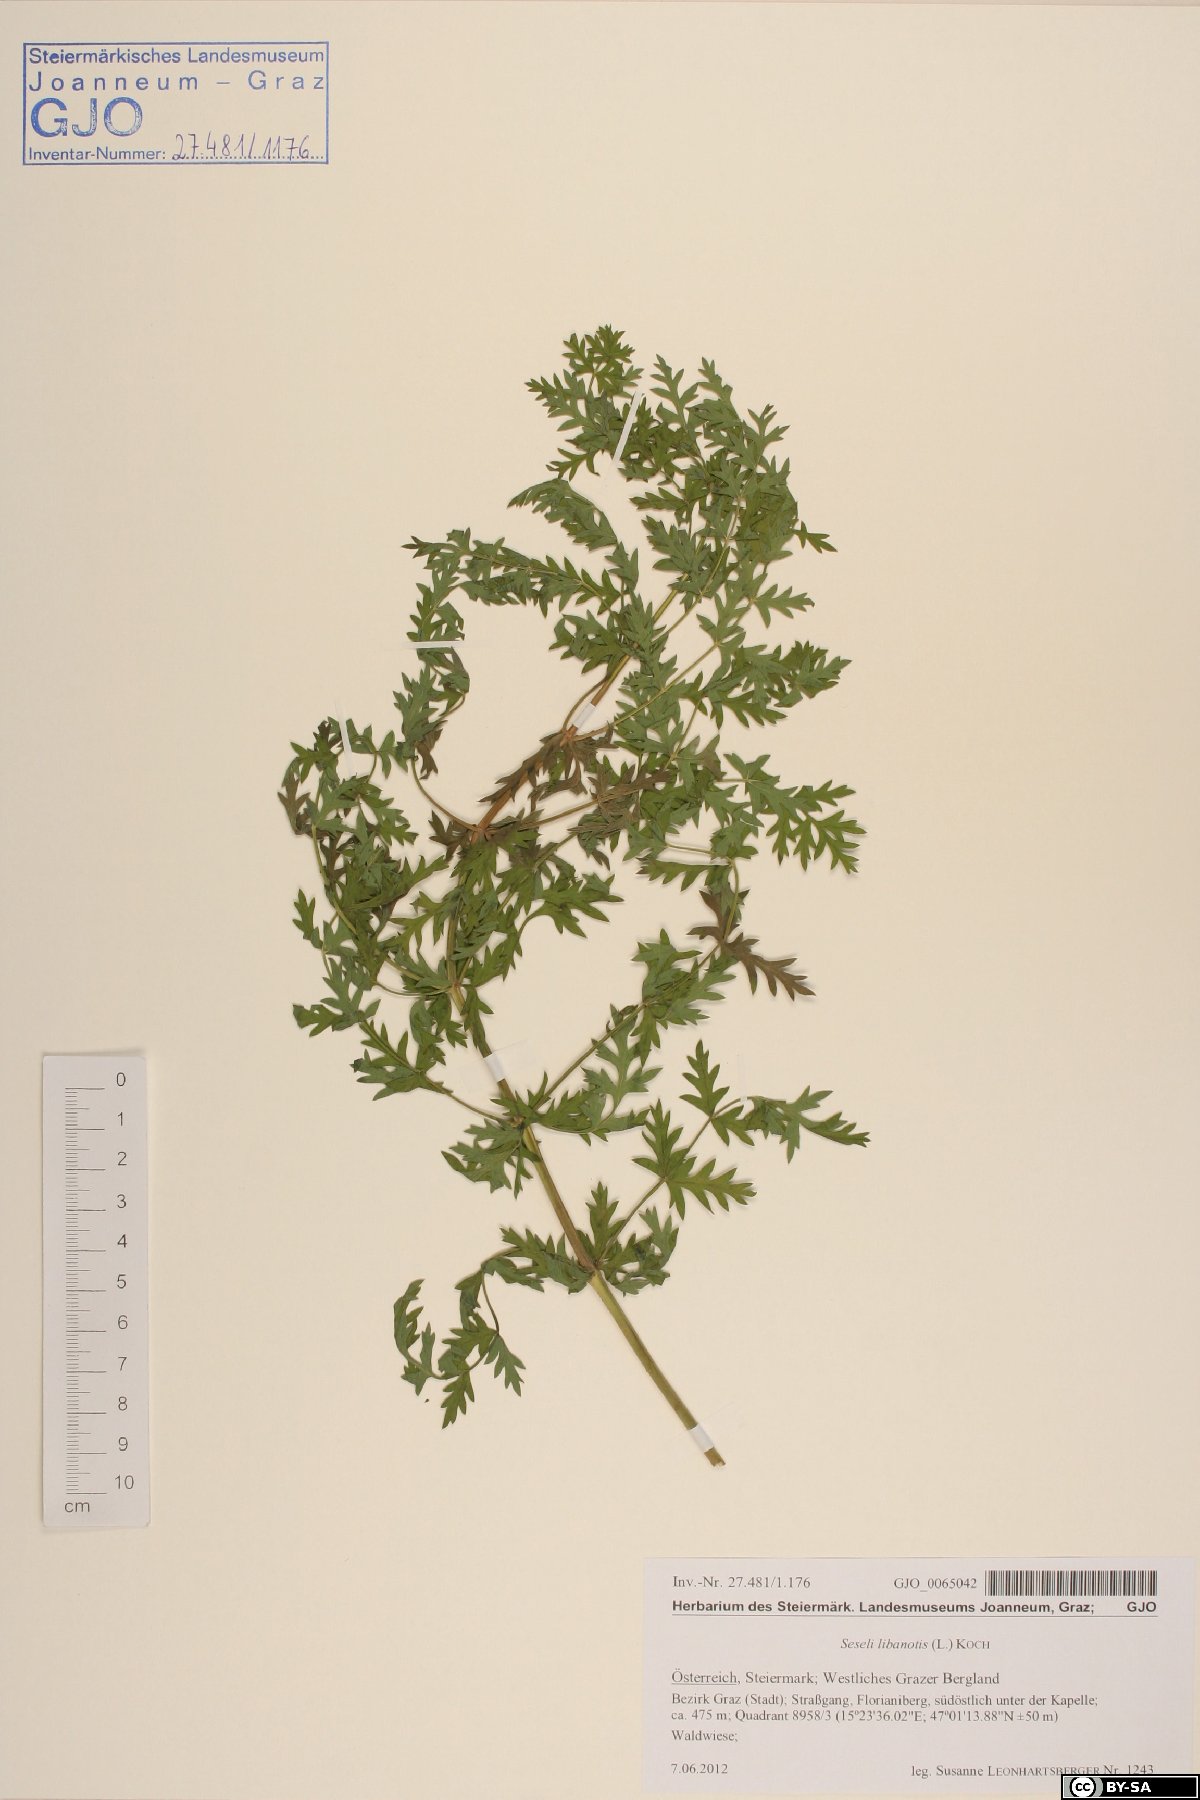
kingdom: Plantae
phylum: Tracheophyta
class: Magnoliopsida
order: Apiales
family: Apiaceae
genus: Seseli
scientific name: Seseli libanotis
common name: Mooncarrot
